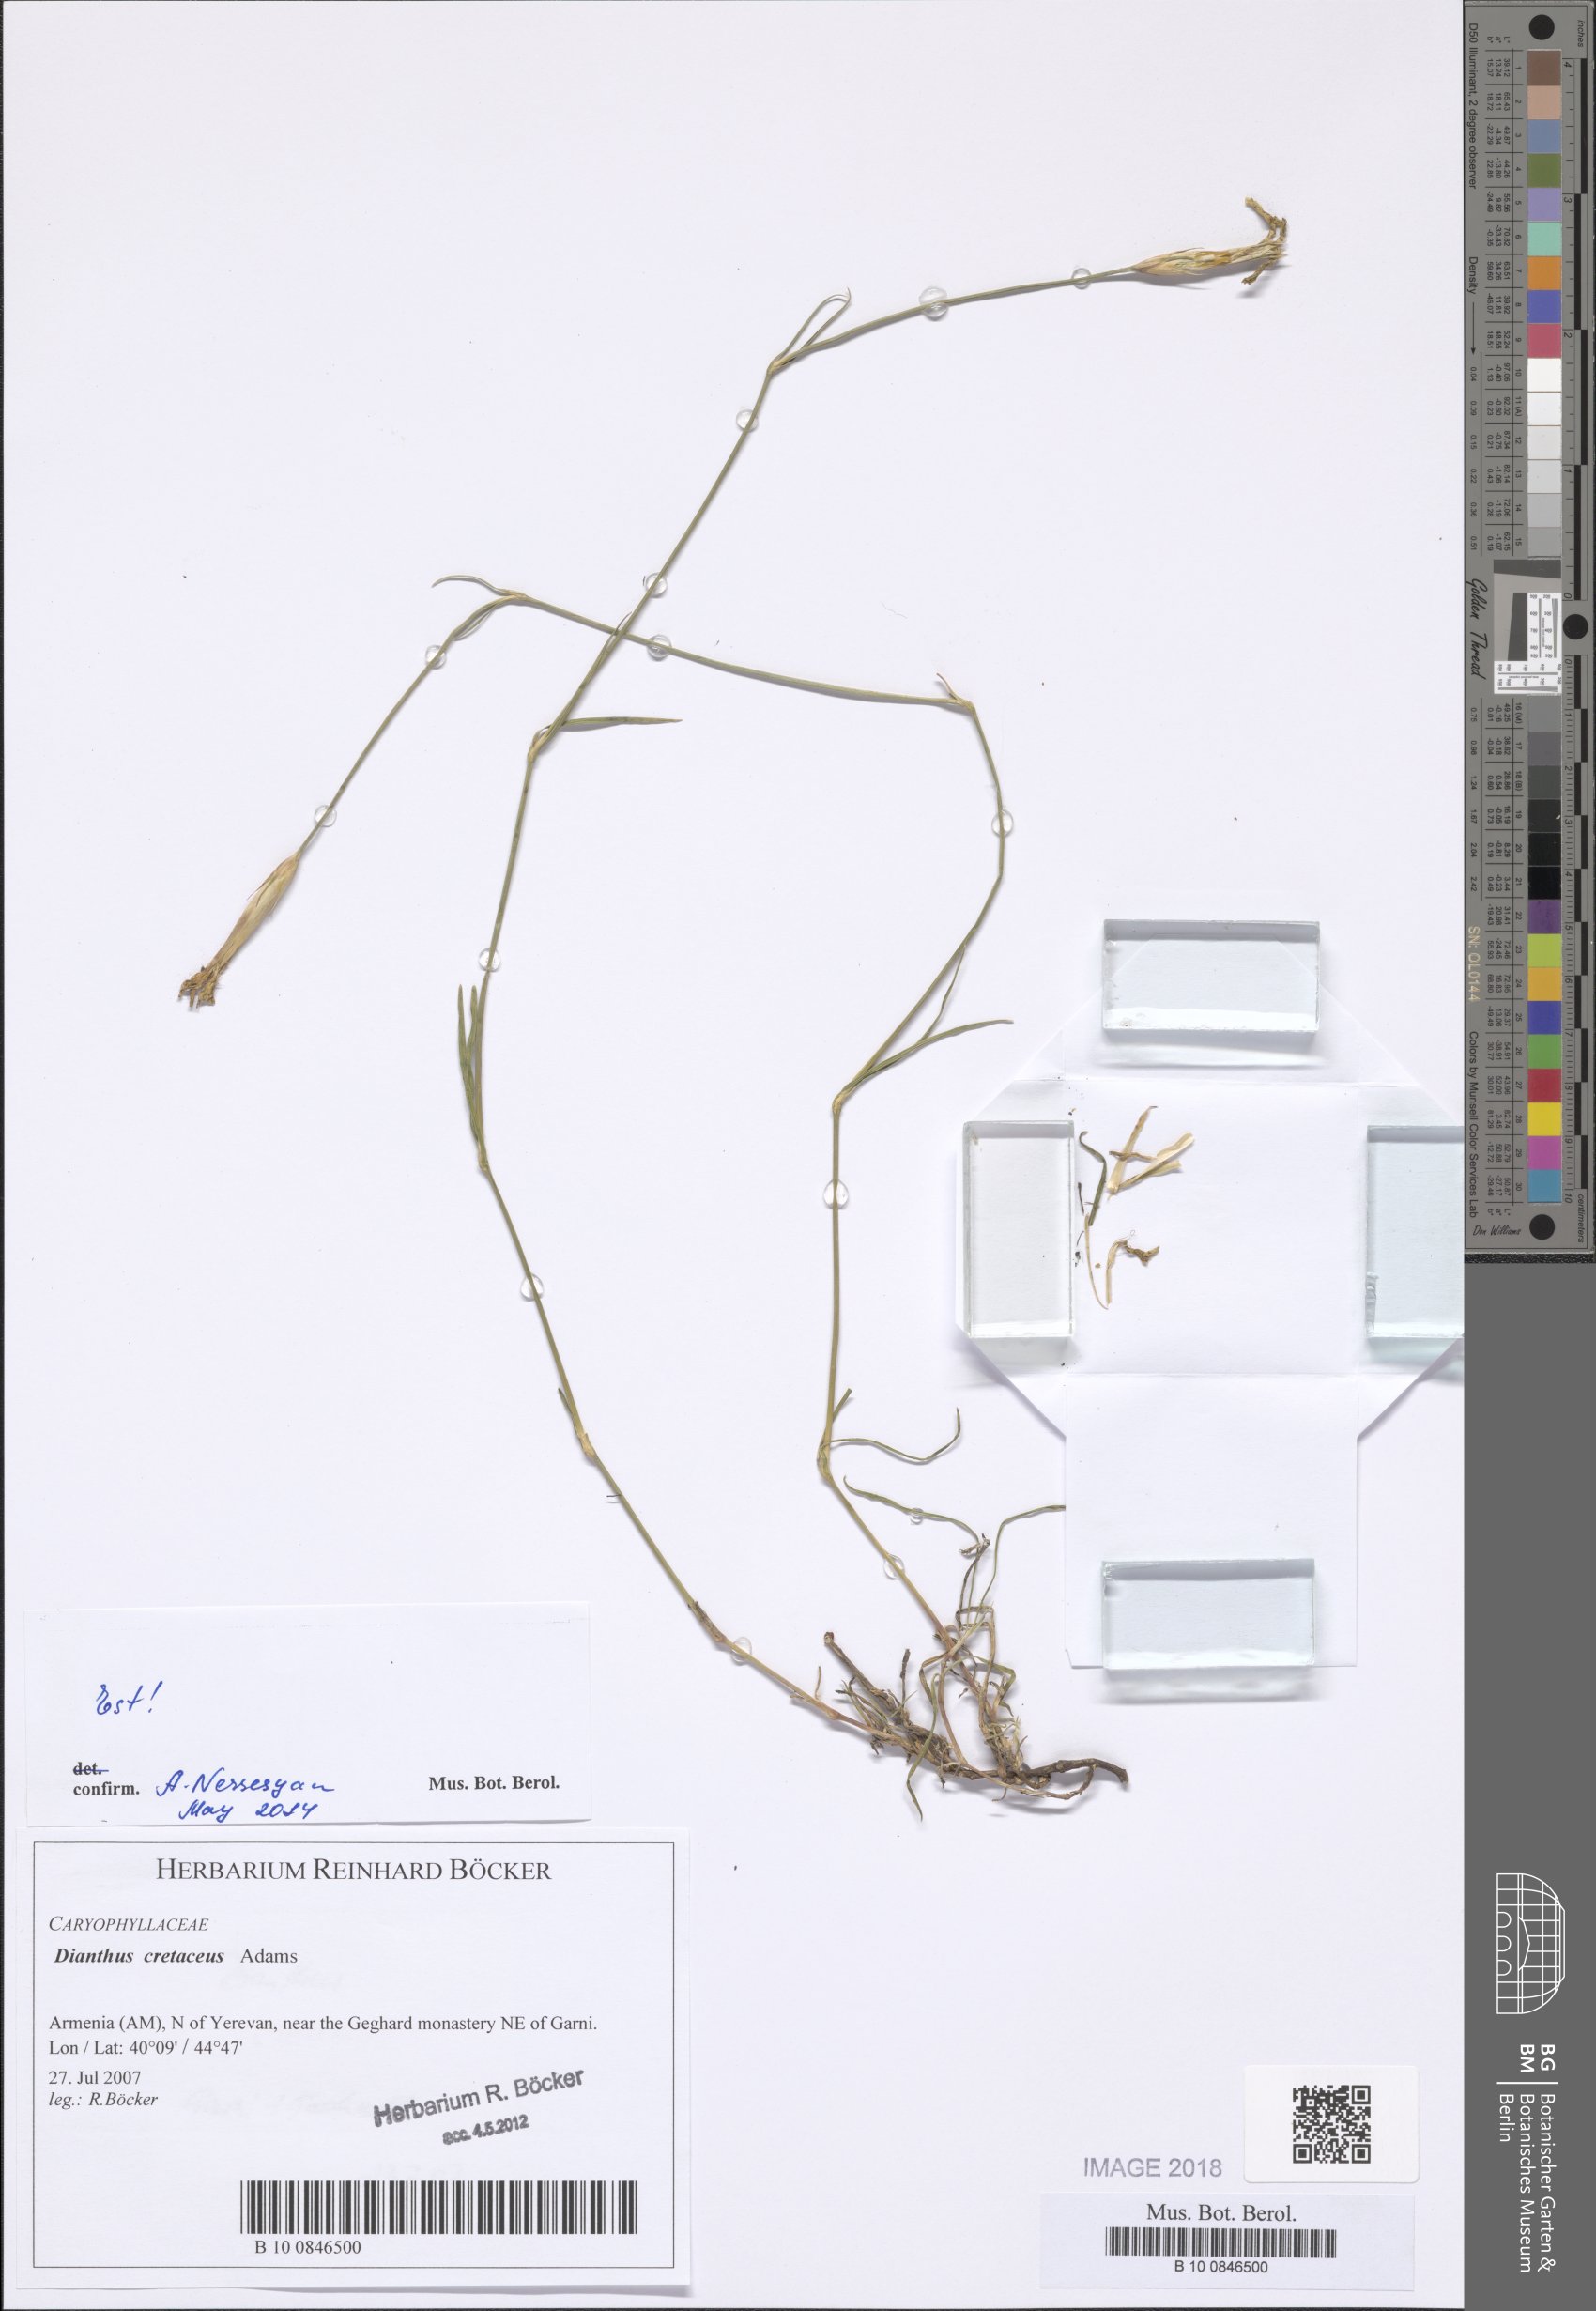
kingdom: Plantae
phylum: Tracheophyta
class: Magnoliopsida
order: Caryophyllales
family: Caryophyllaceae
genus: Dianthus
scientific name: Dianthus cretaceus
